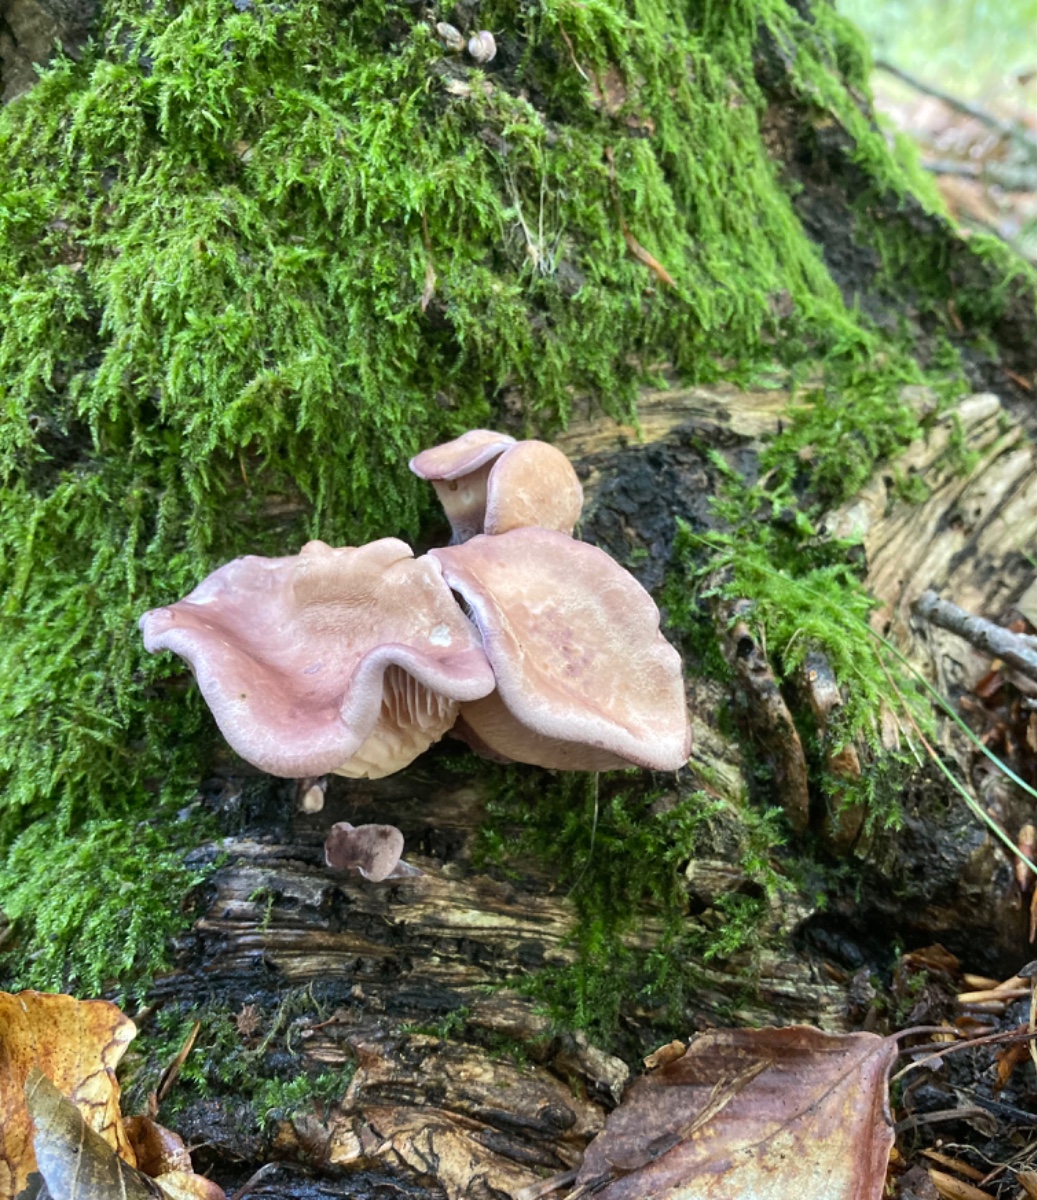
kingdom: Fungi
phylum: Basidiomycota
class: Agaricomycetes
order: Polyporales
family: Panaceae
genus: Panus
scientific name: Panus conchatus
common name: filtstokket læderhat
